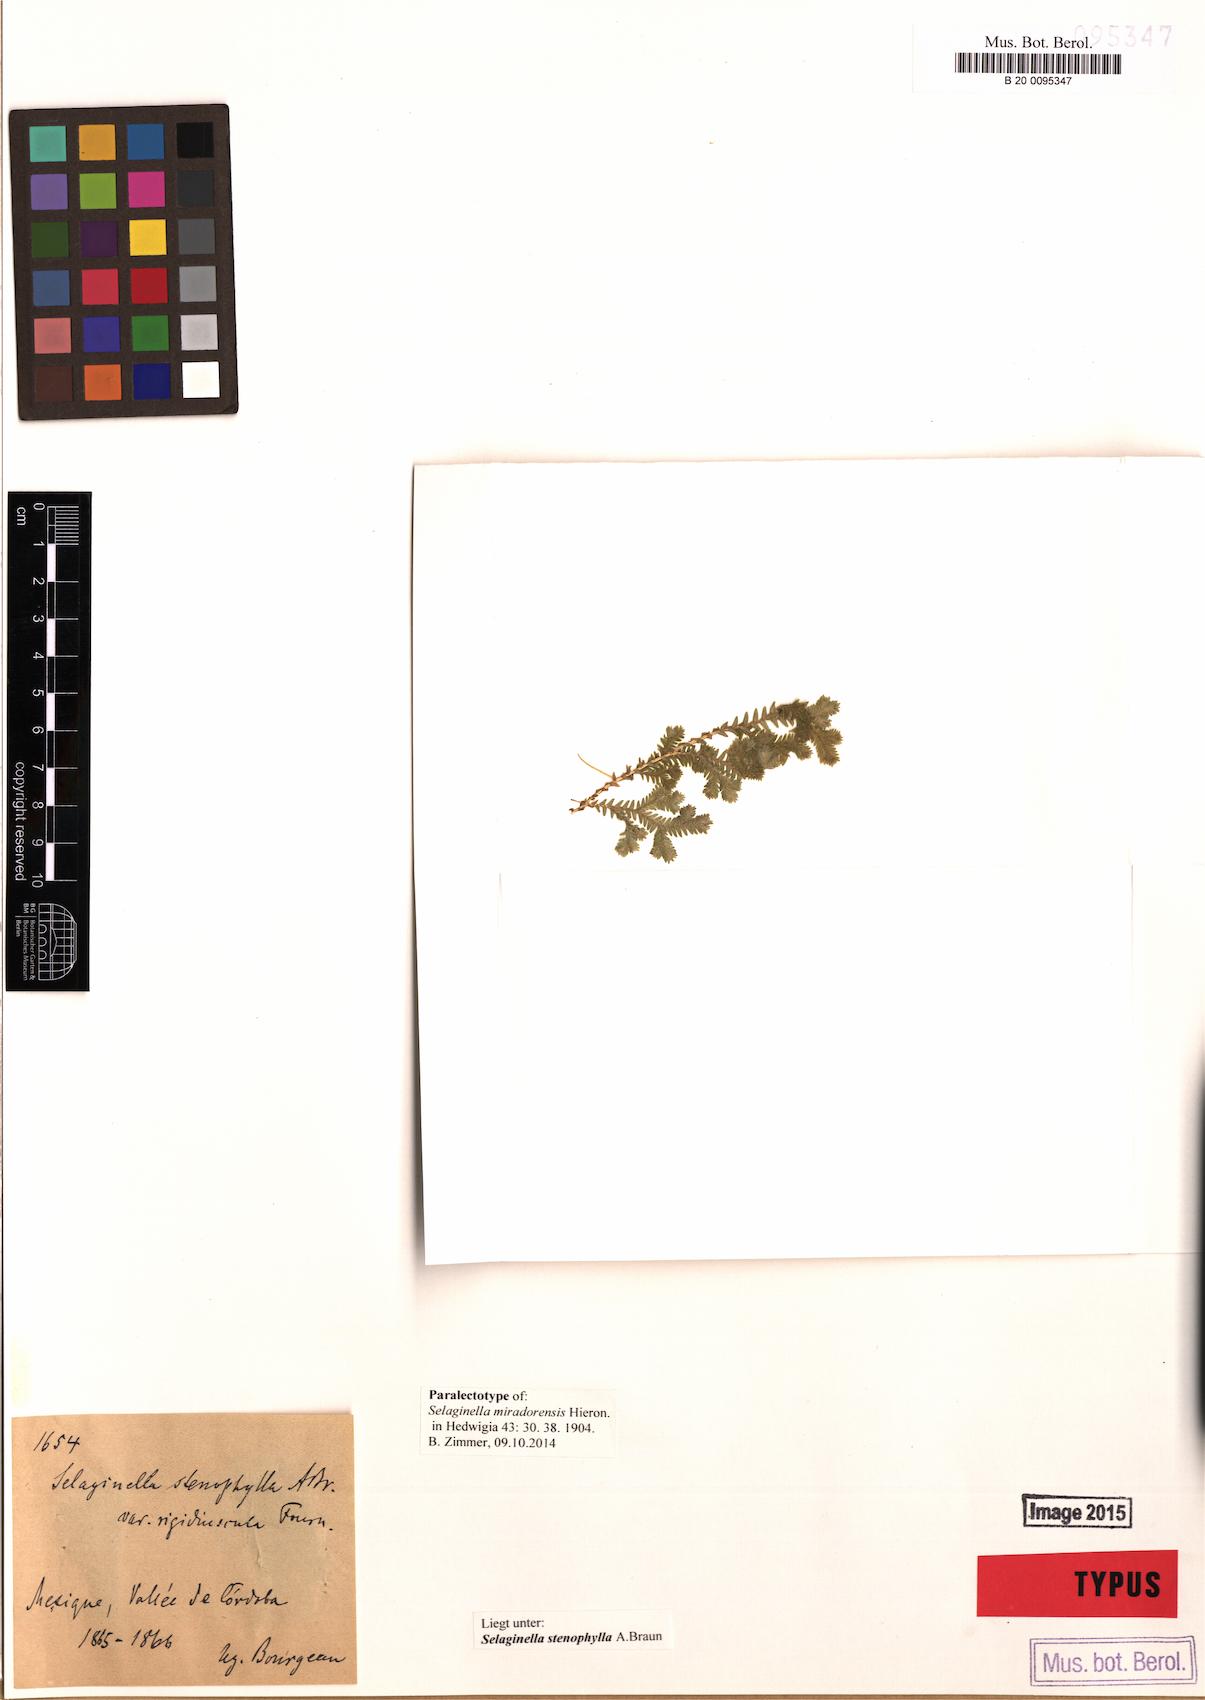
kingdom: Plantae
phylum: Tracheophyta
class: Lycopodiopsida
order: Selaginellales
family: Selaginellaceae
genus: Selaginella
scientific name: Selaginella stenophylla
